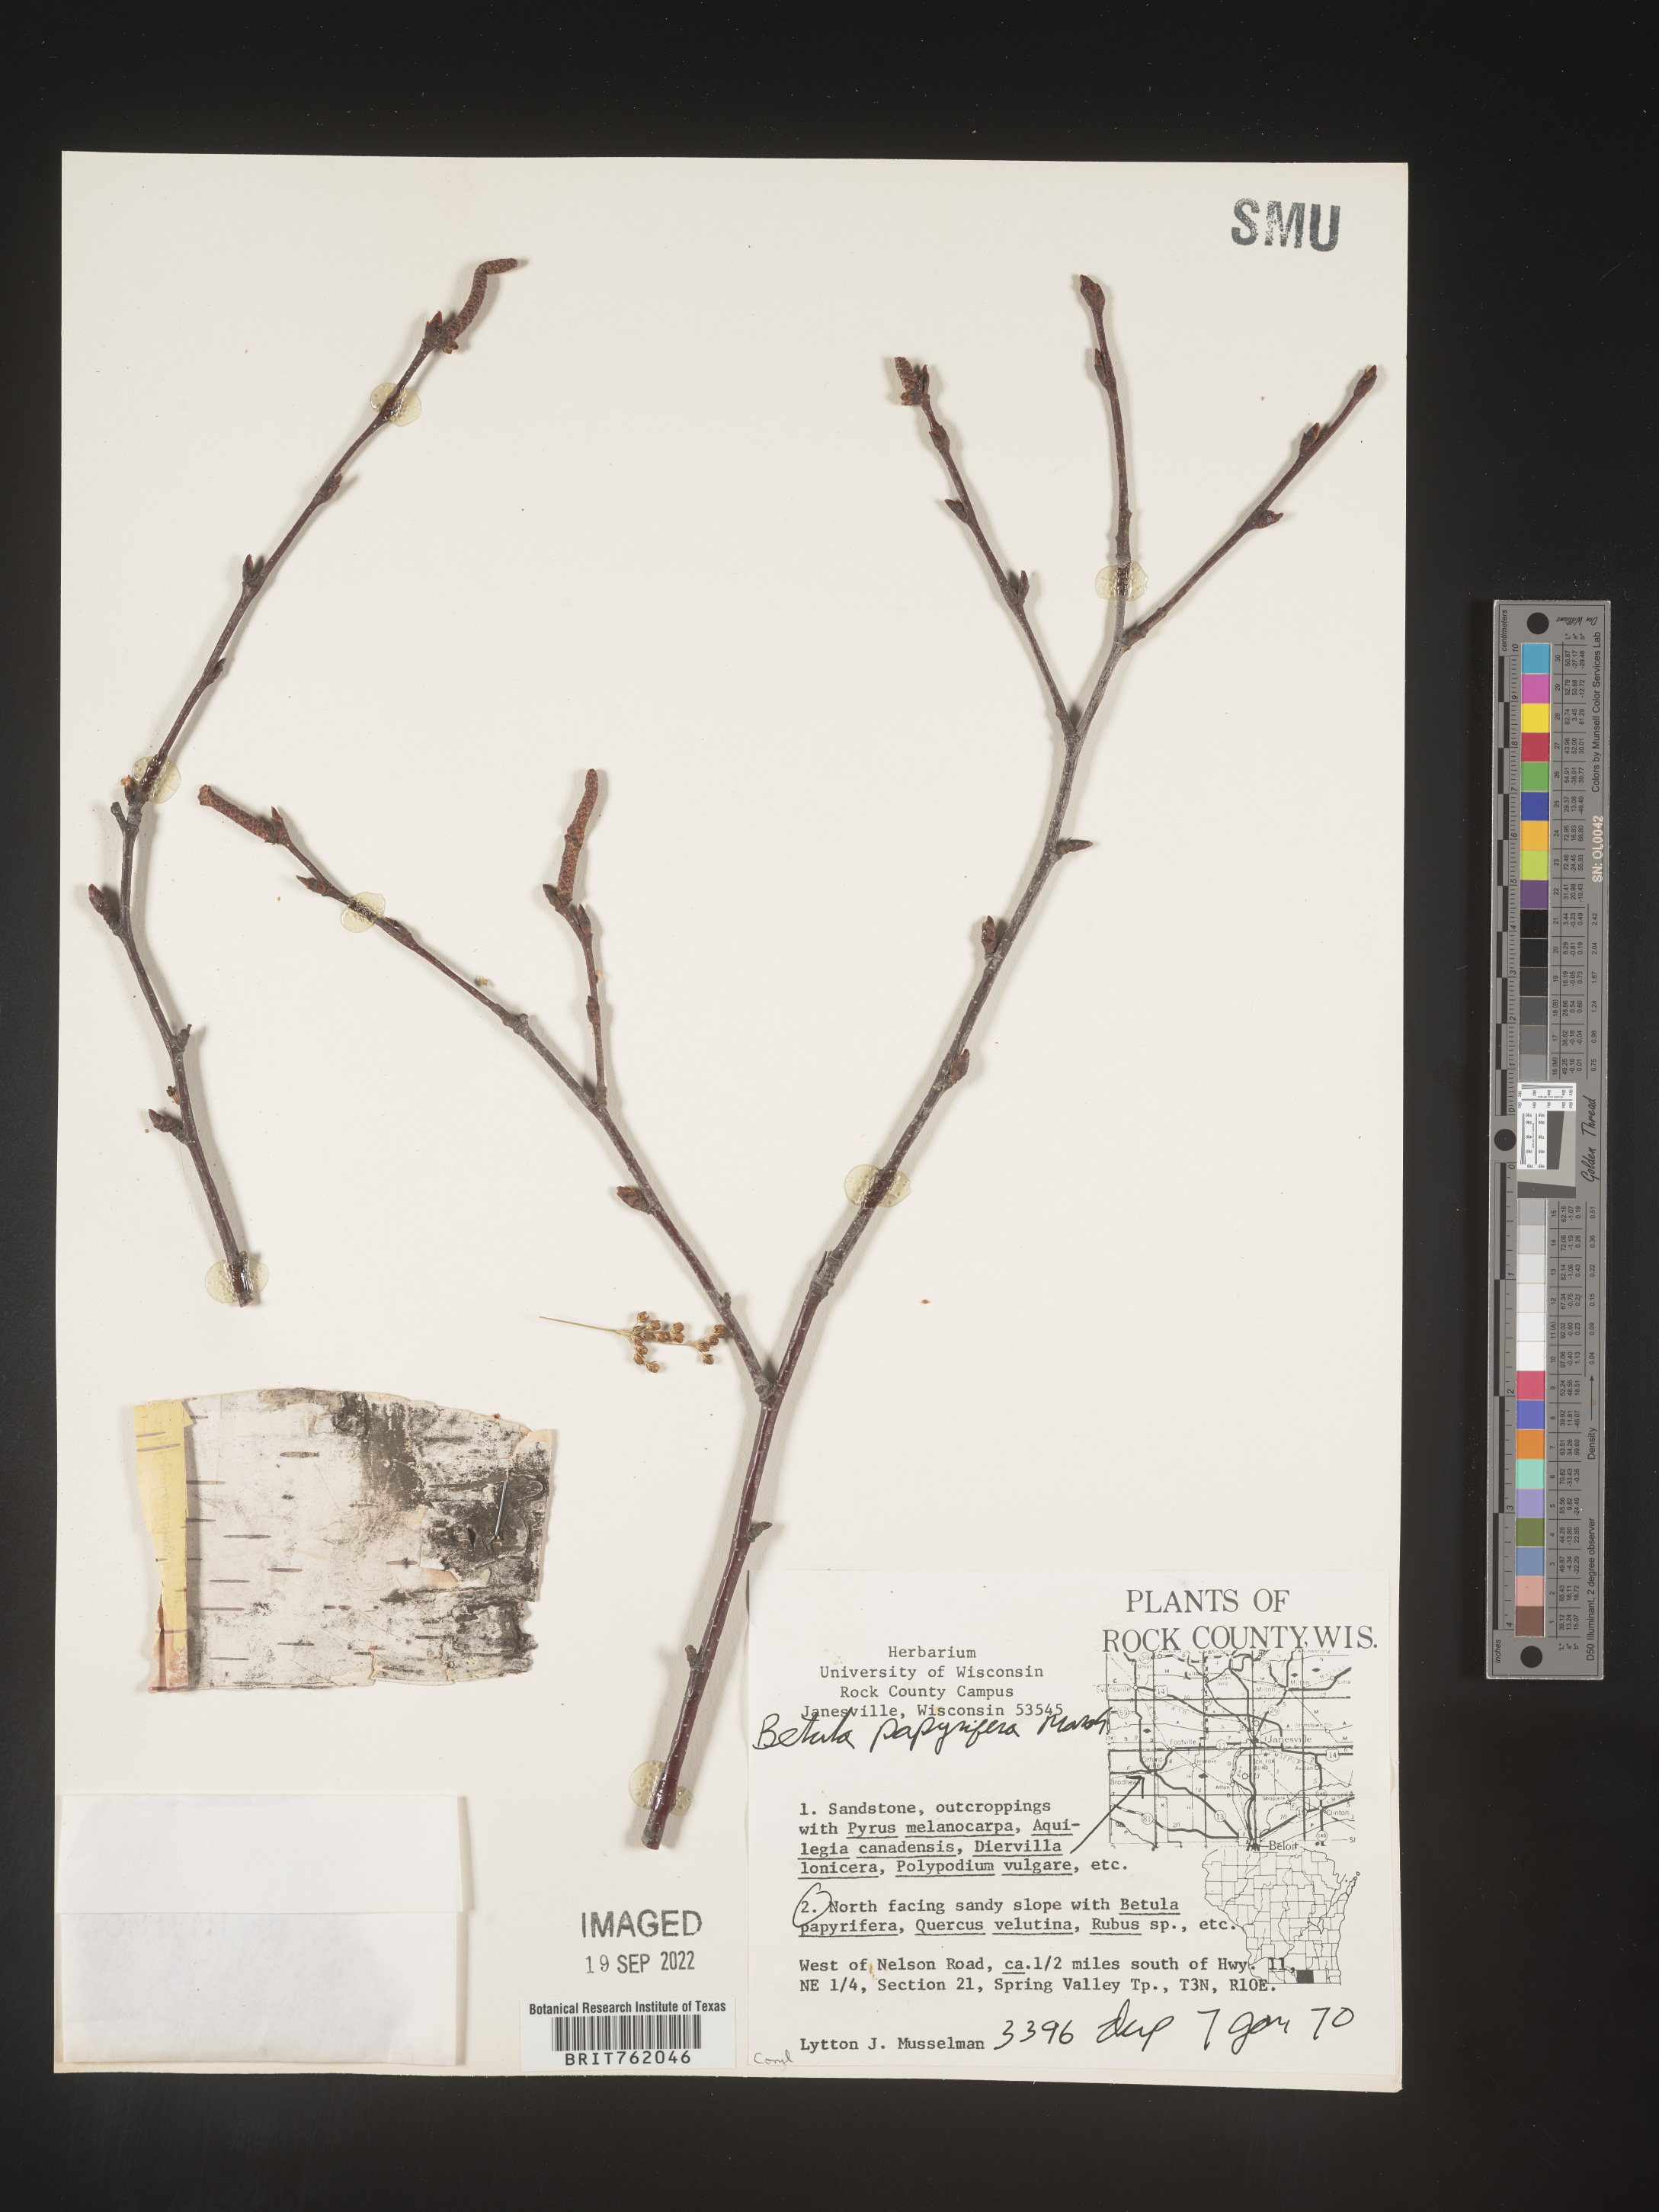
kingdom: Plantae
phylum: Tracheophyta
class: Magnoliopsida
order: Fagales
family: Betulaceae
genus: Betula
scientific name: Betula papyrifera
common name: Paper birch
